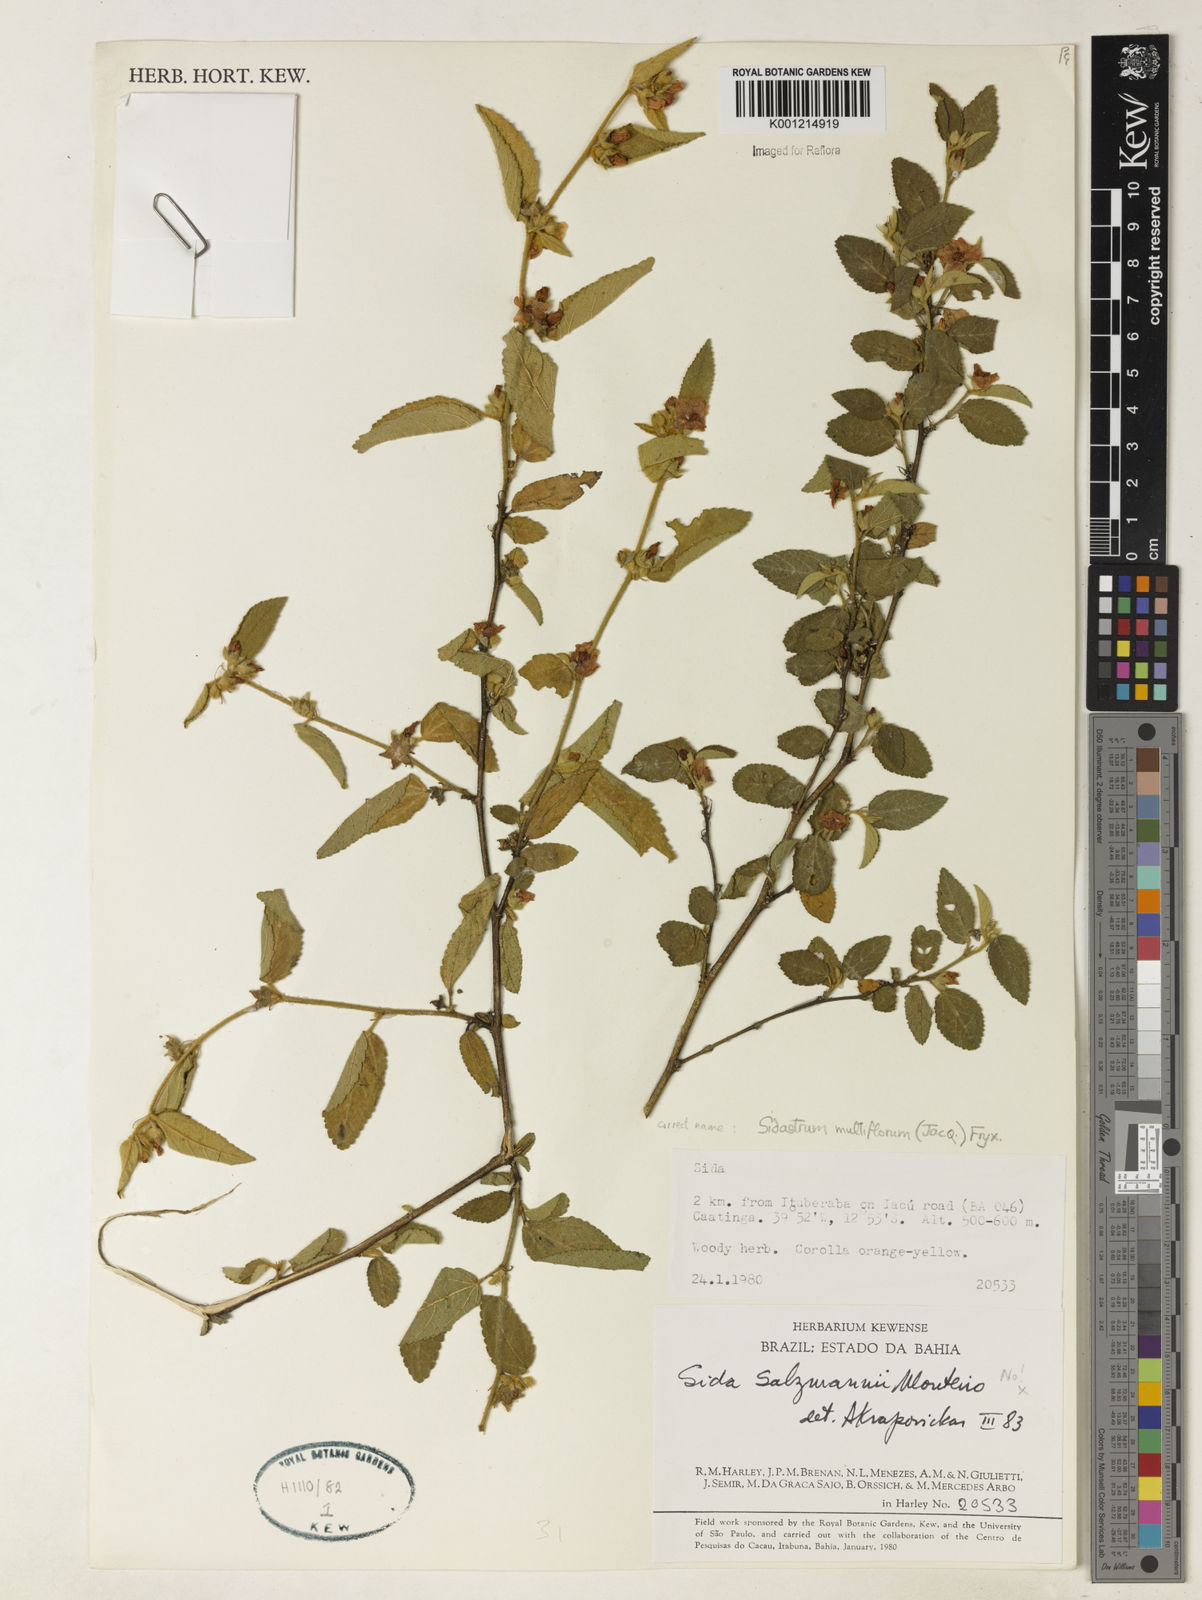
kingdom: Plantae
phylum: Tracheophyta
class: Magnoliopsida
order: Malvales
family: Malvaceae
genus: Sidastrum
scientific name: Sidastrum multiflorum
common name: Manyflower sandmallow
